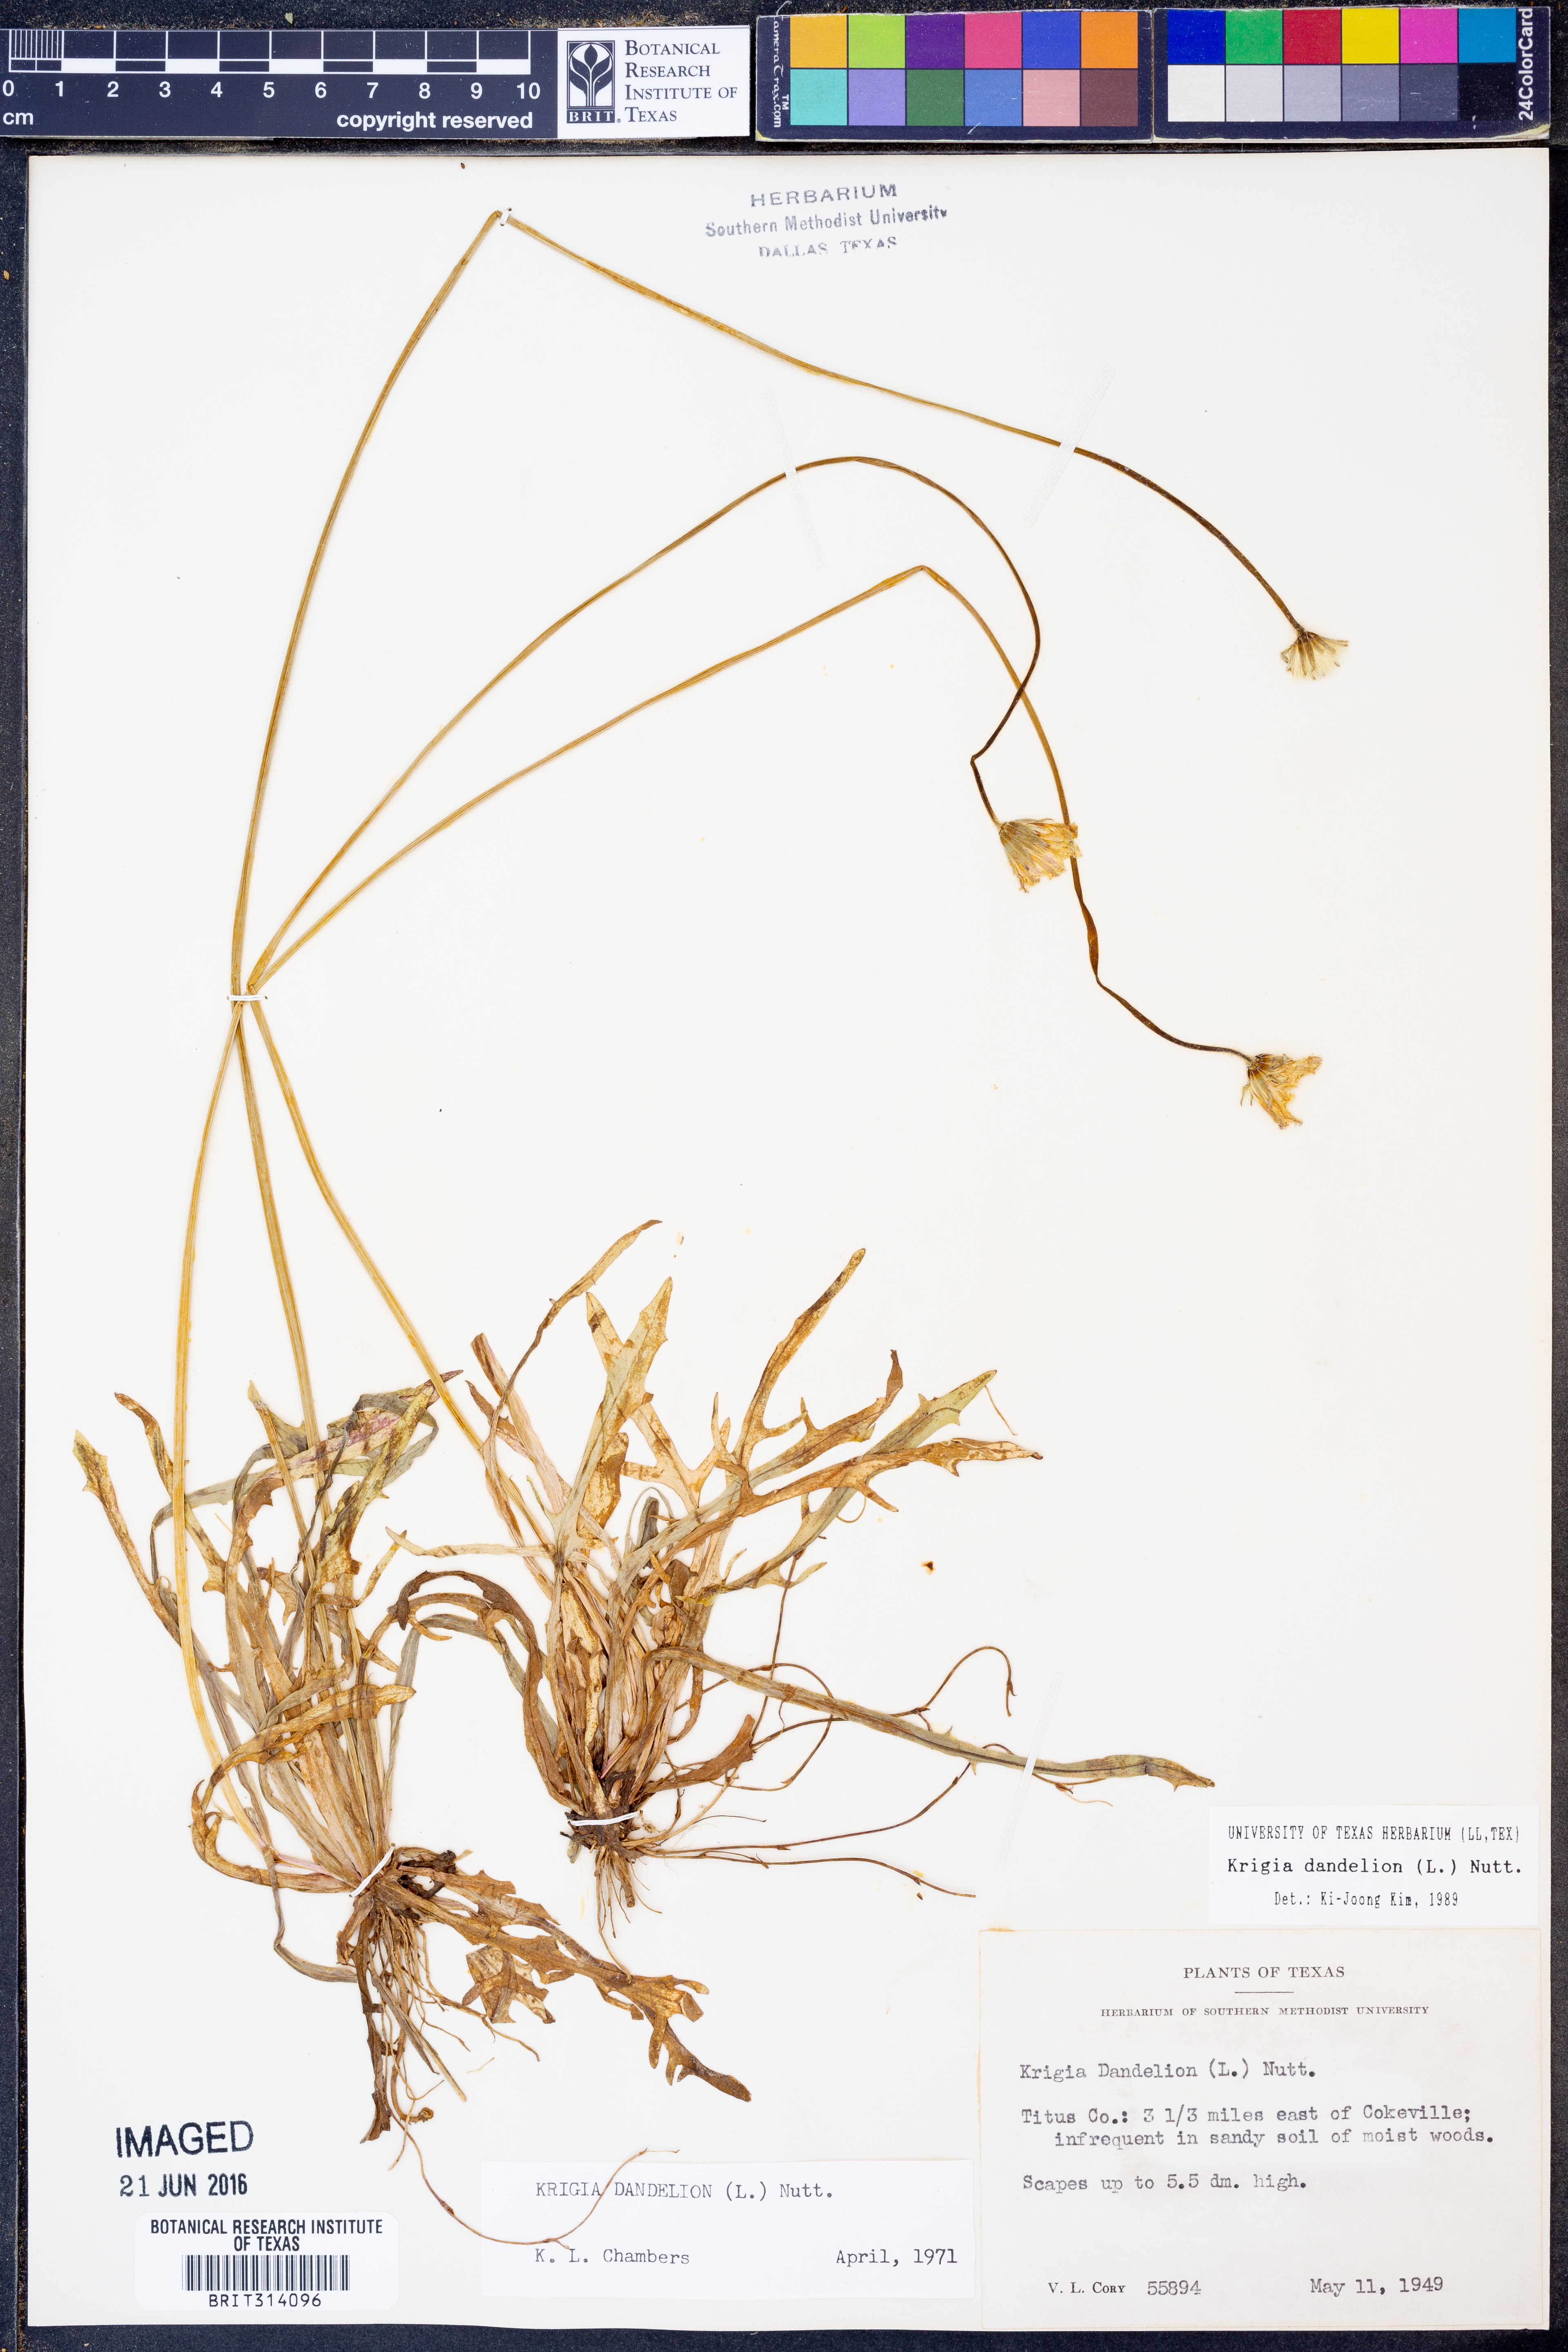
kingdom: Plantae
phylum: Tracheophyta
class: Magnoliopsida
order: Asterales
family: Asteraceae
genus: Krigia
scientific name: Krigia dandelion
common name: Colonial dwarf-dandelion
